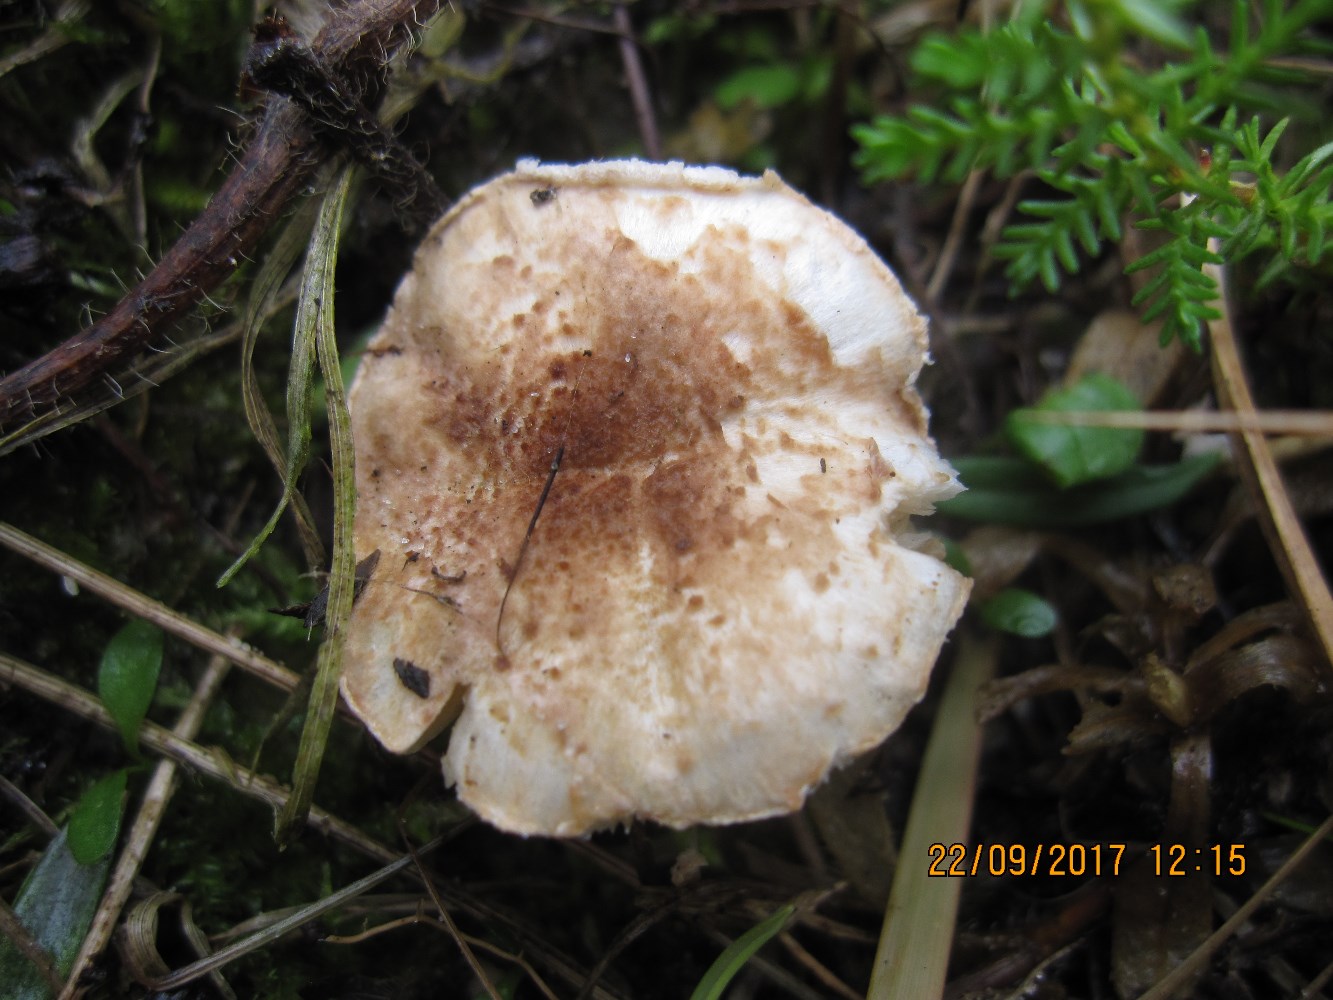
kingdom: Fungi
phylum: Basidiomycota
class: Agaricomycetes
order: Agaricales
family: Agaricaceae
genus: Lepiota
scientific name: Lepiota echinella
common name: finskællet parasolhat
